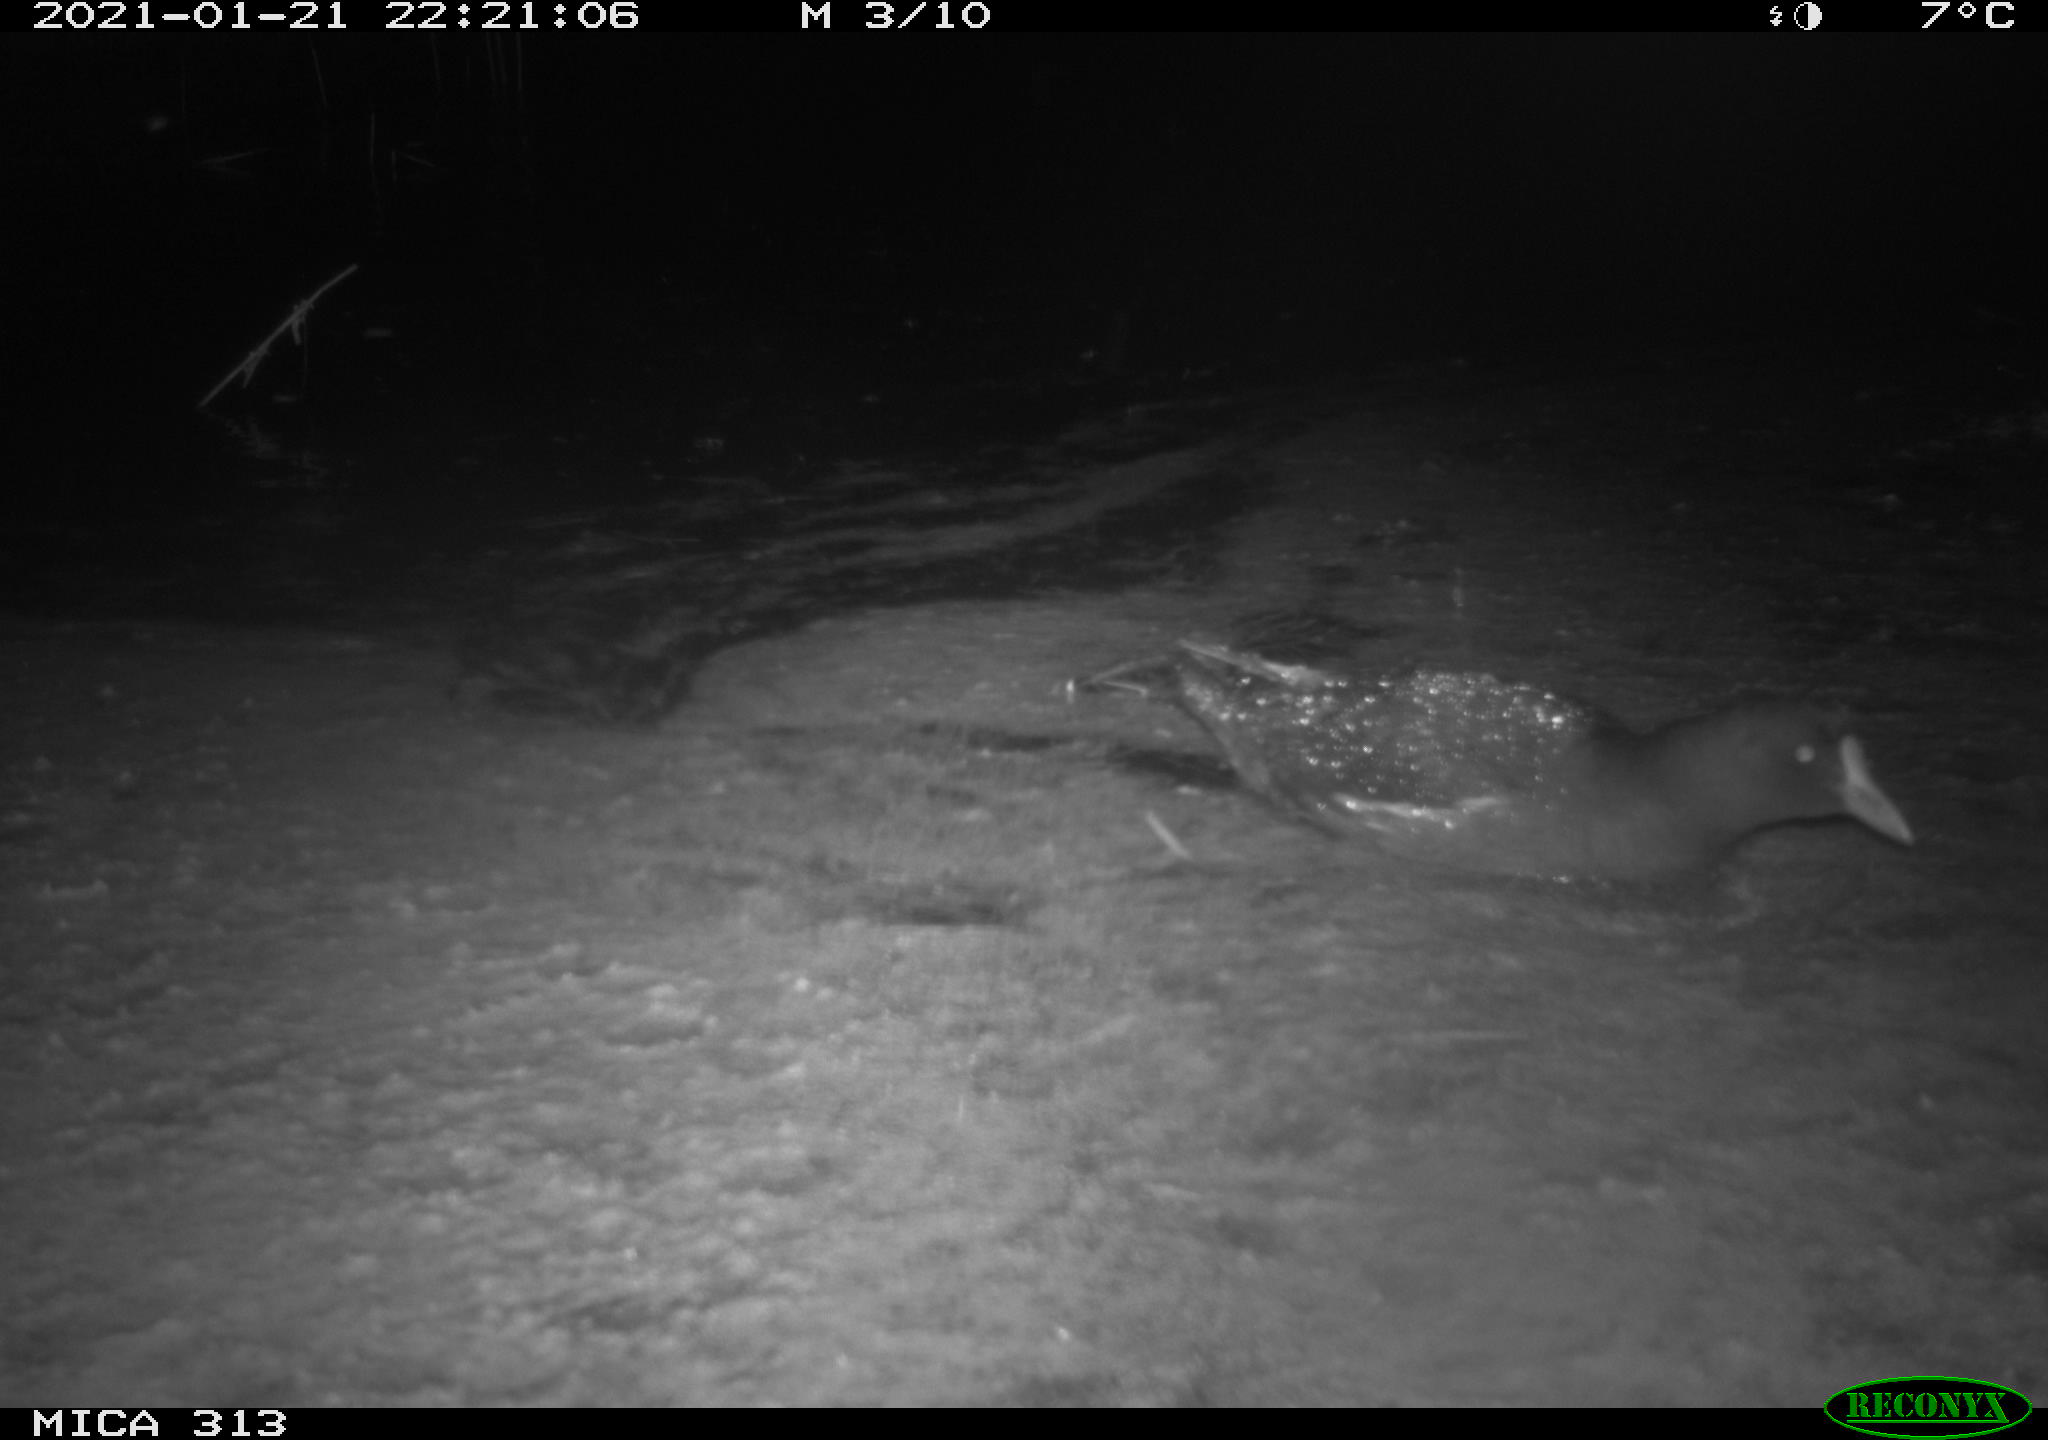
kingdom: Animalia
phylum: Chordata
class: Aves
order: Gruiformes
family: Rallidae
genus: Gallinula
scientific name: Gallinula chloropus
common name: Common moorhen
